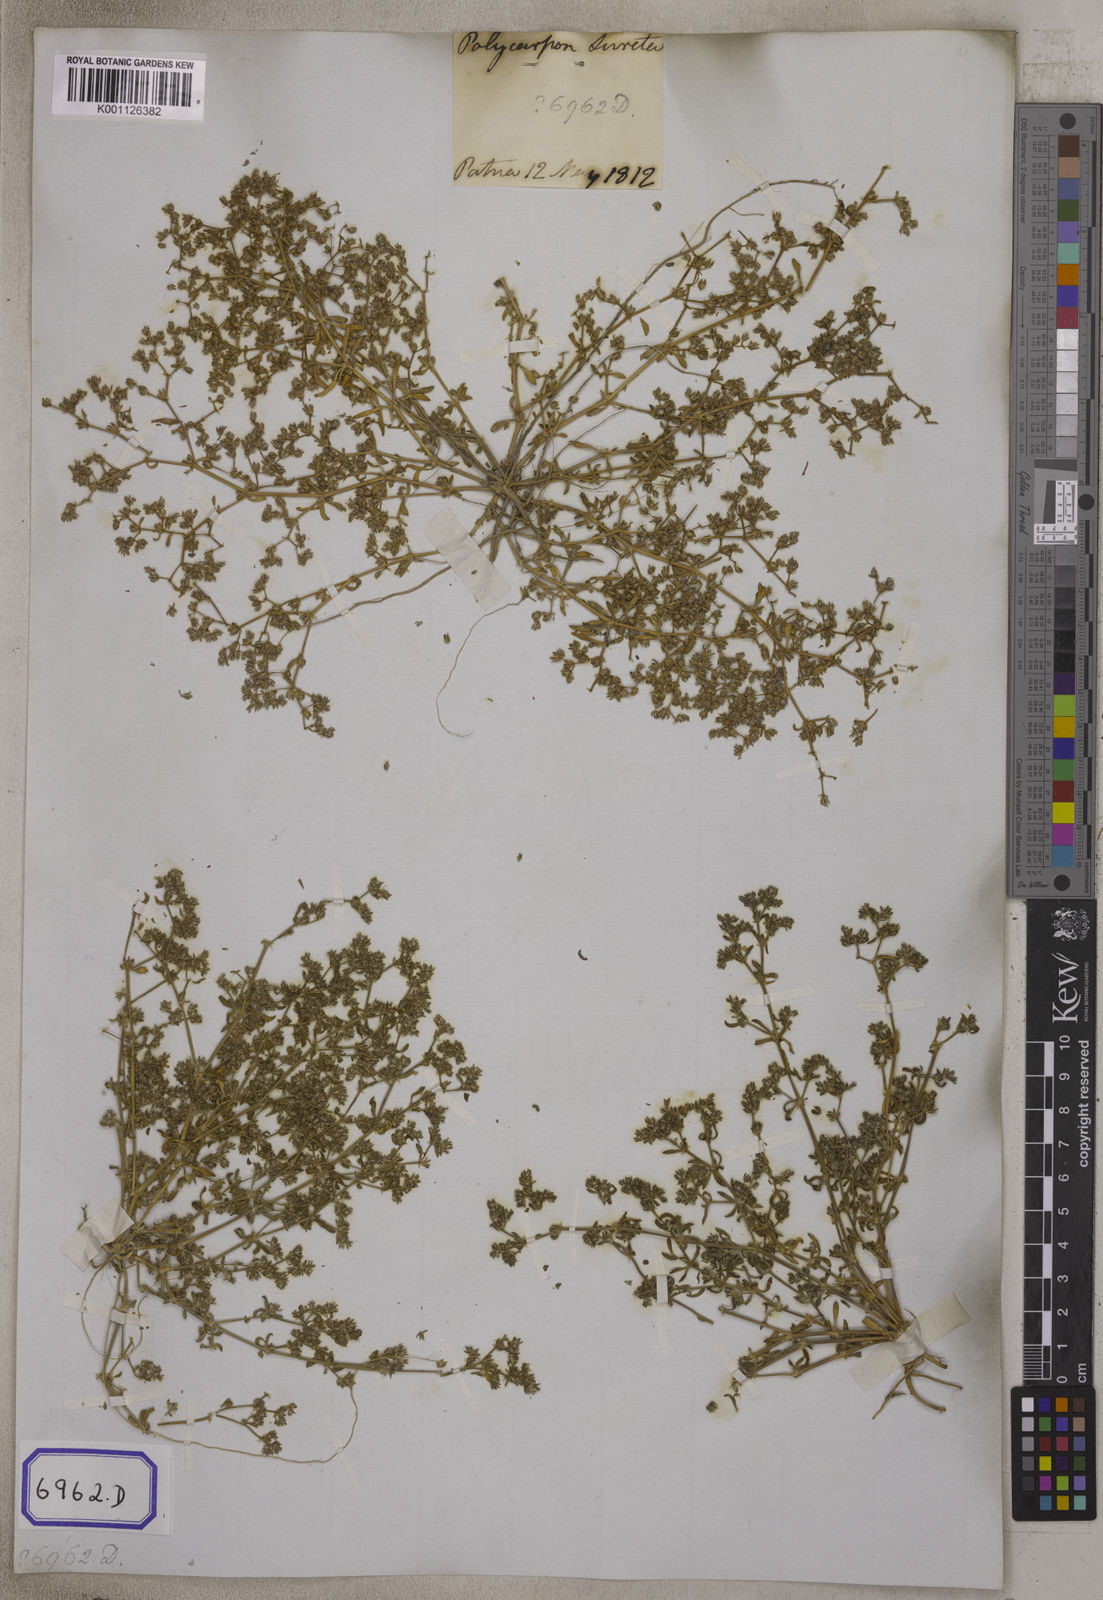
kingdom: Plantae
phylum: Tracheophyta
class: Magnoliopsida
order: Caryophyllales
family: Caryophyllaceae
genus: Hapalosia
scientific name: Hapalosia
